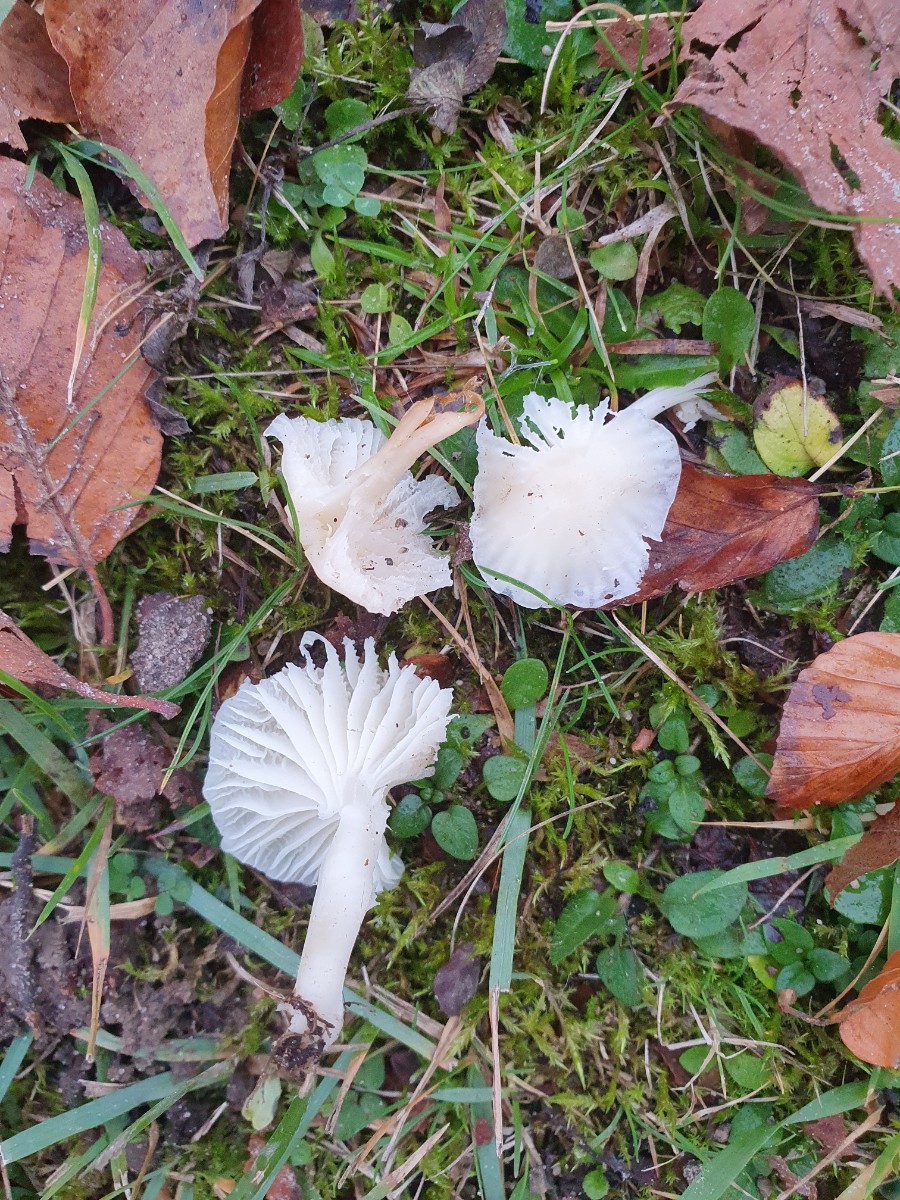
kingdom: Fungi
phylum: Basidiomycota
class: Agaricomycetes
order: Agaricales
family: Hygrophoraceae
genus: Cuphophyllus
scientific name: Cuphophyllus virgineus
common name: snehvid vokshat
